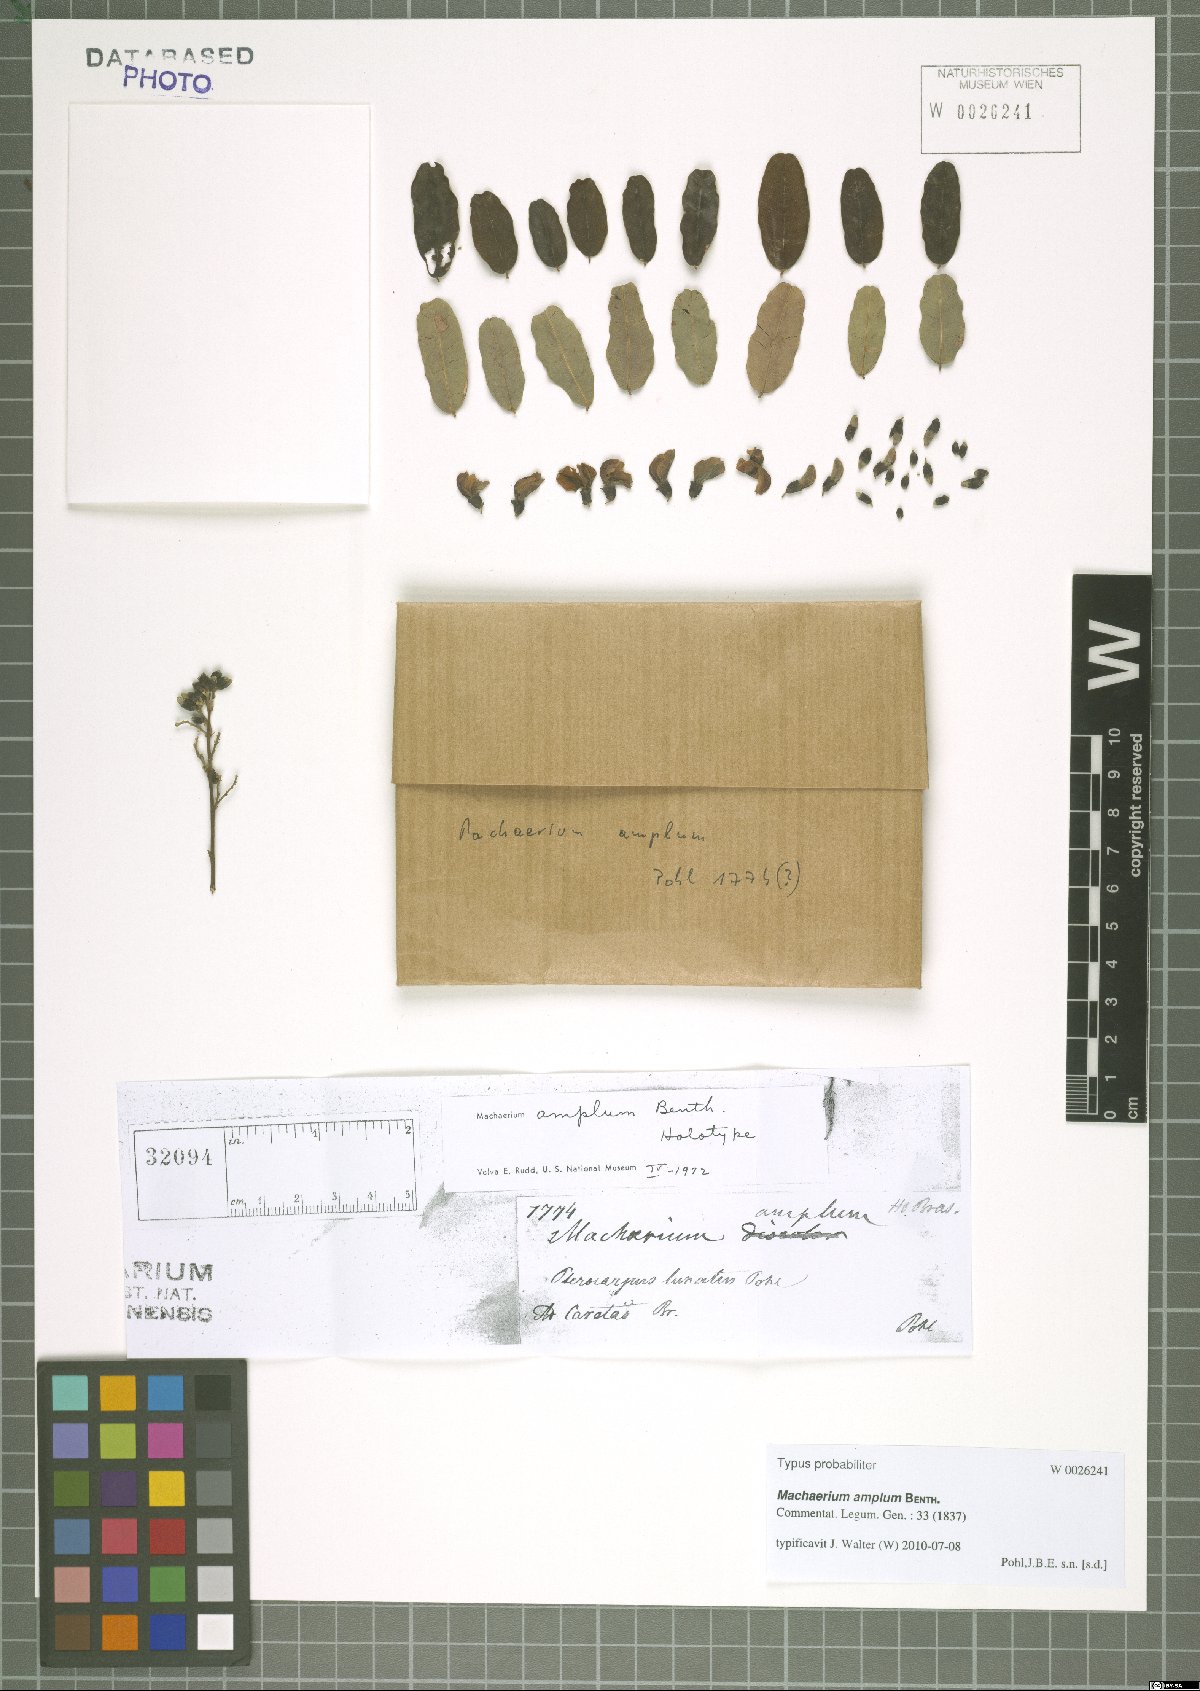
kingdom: Plantae
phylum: Tracheophyta
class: Magnoliopsida
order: Fabales
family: Fabaceae
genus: Machaerium
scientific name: Machaerium amplum
